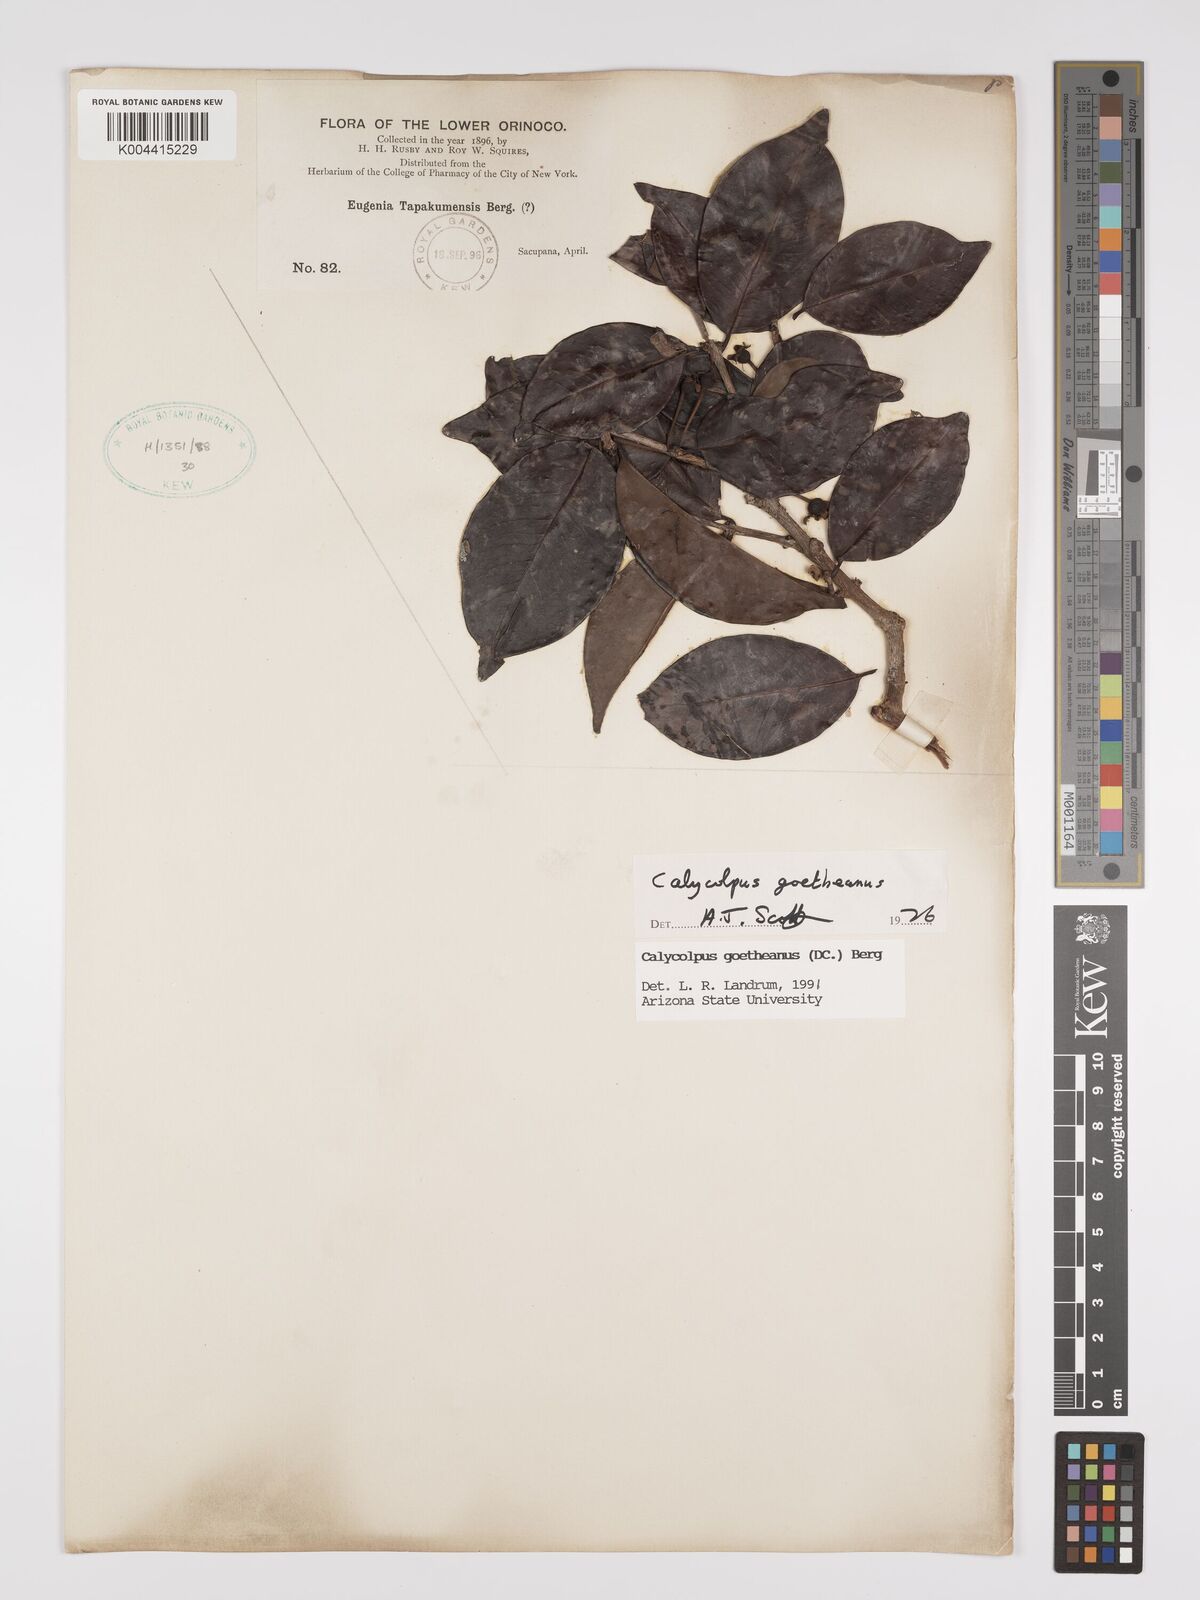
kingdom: Plantae
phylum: Tracheophyta
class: Magnoliopsida
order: Myrtales
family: Myrtaceae
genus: Calycolpus
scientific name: Calycolpus goetheanus
